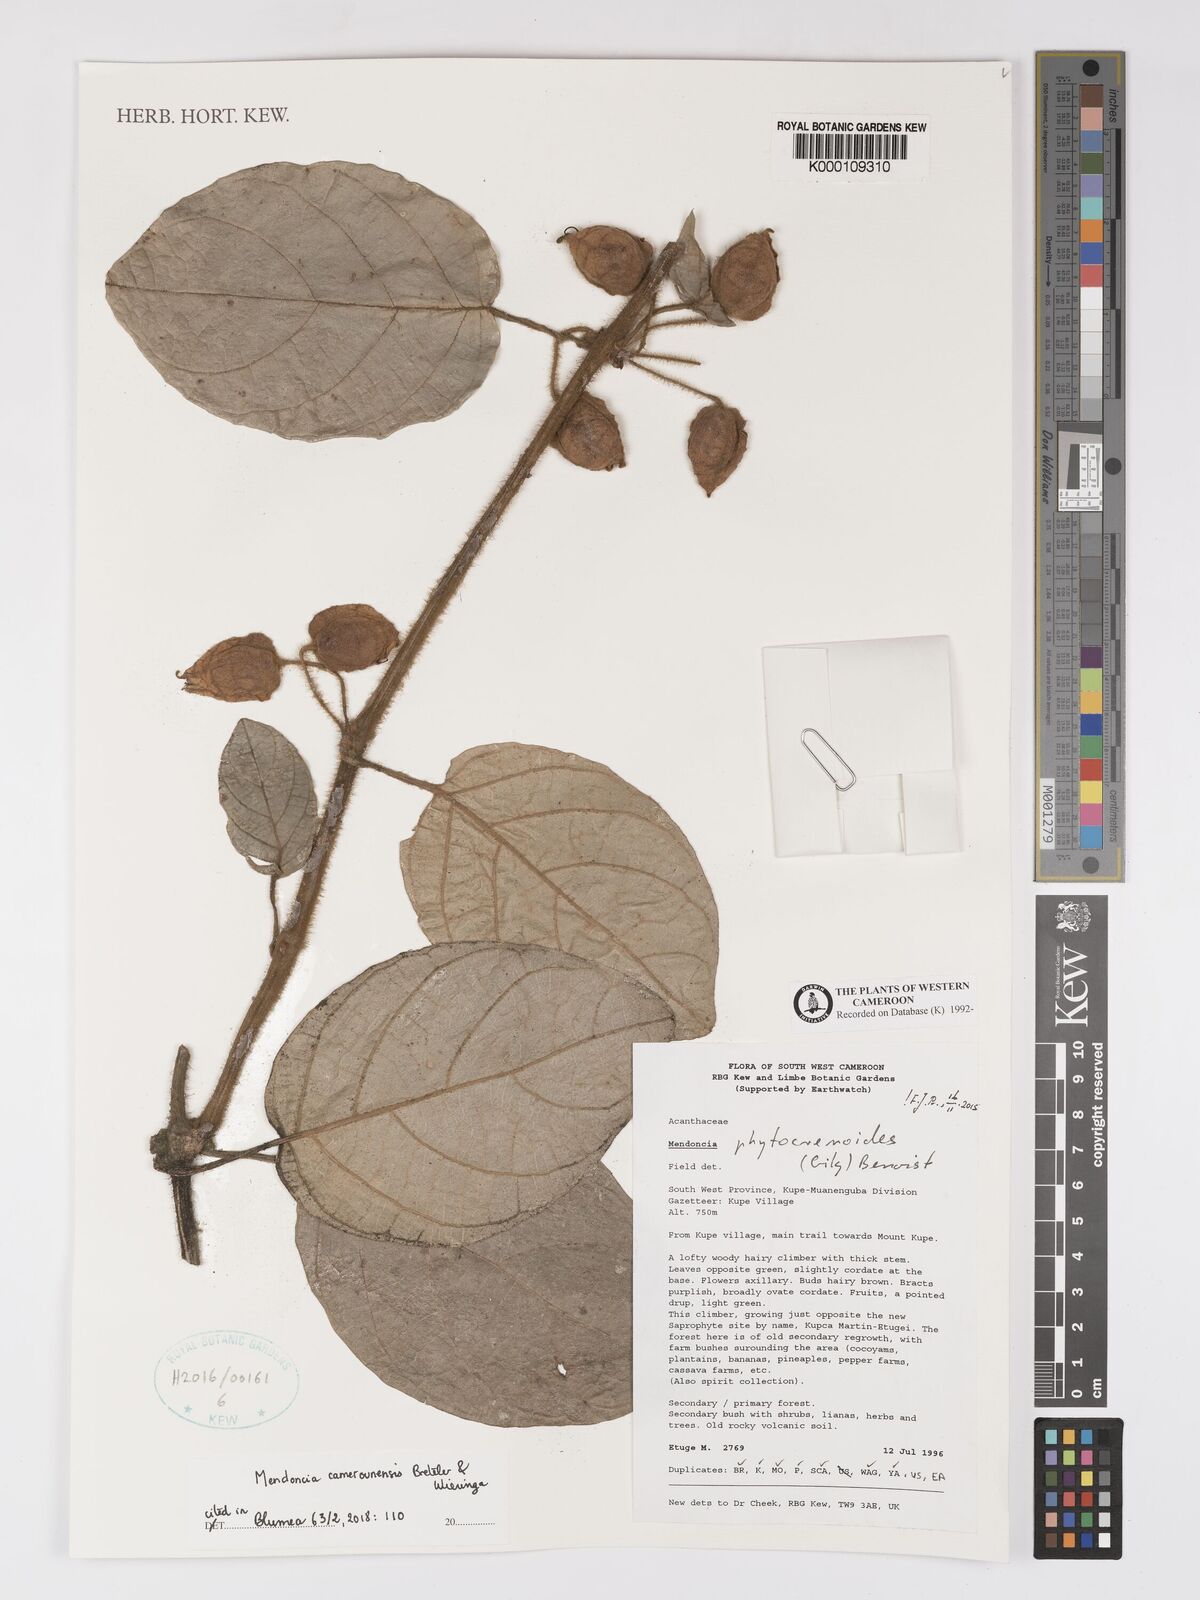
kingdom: Plantae
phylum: Tracheophyta
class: Magnoliopsida
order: Lamiales
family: Acanthaceae
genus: Mendoncia
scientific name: Mendoncia
